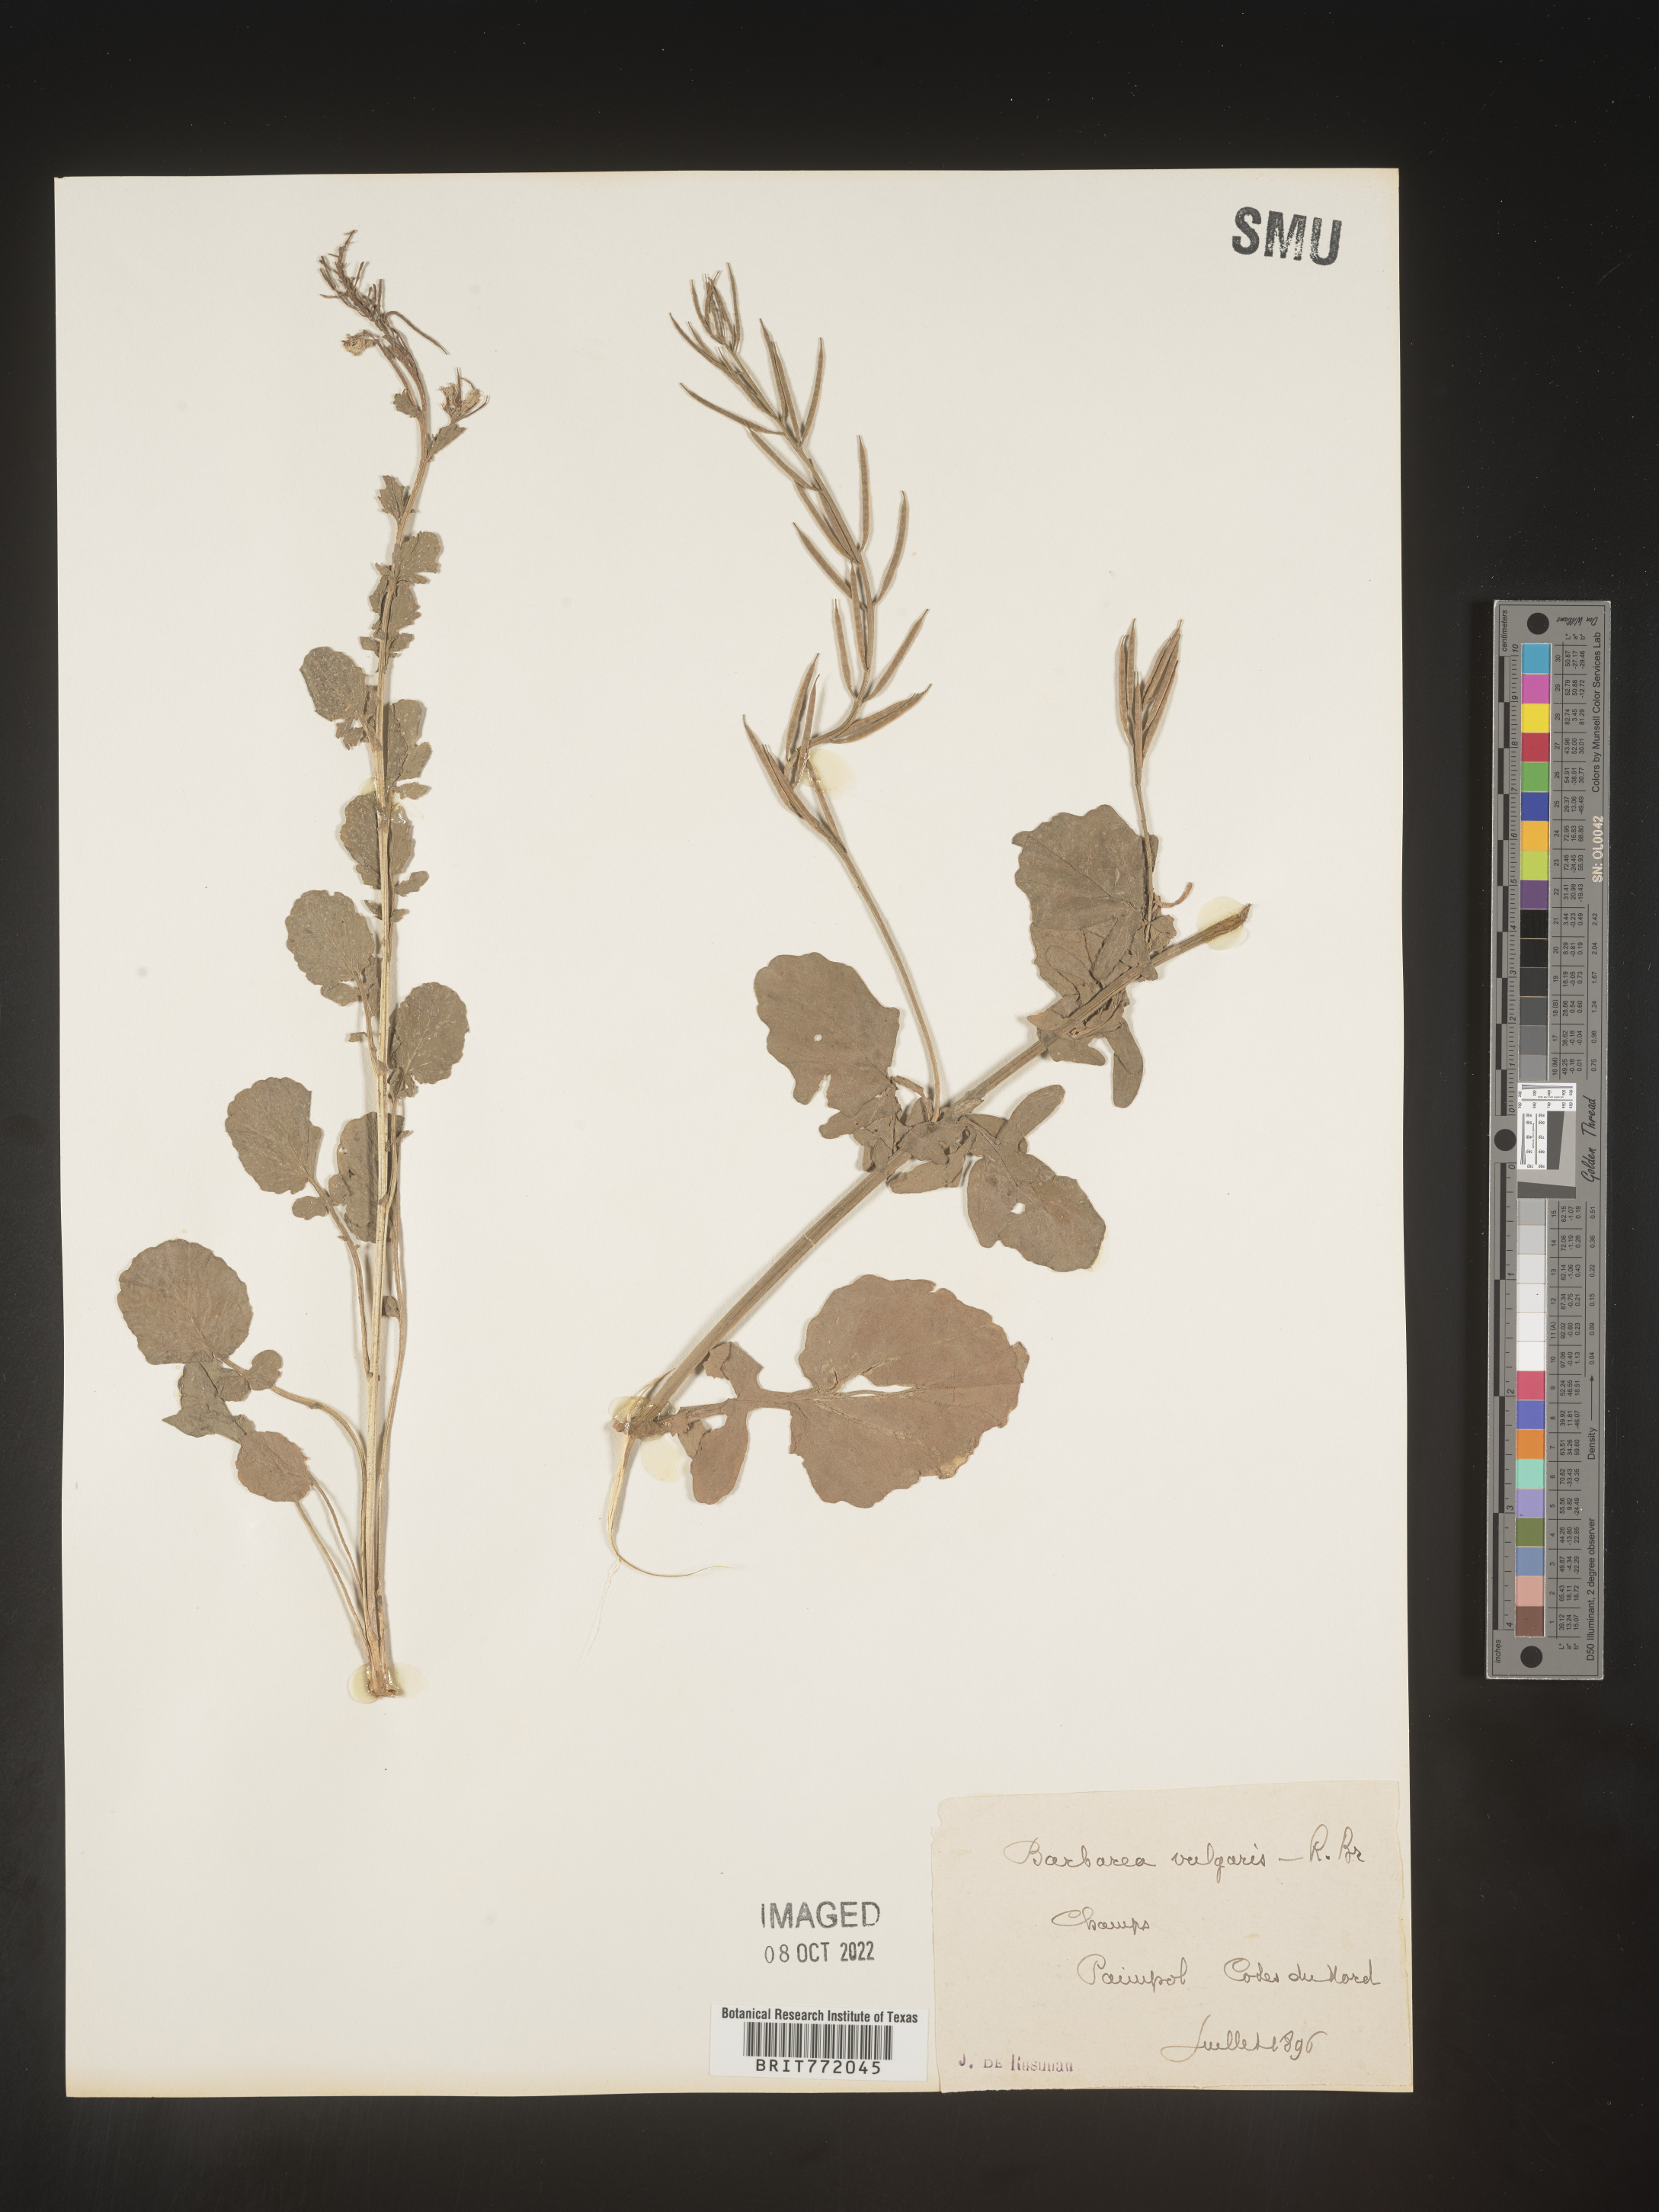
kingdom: Plantae
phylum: Tracheophyta
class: Magnoliopsida
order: Brassicales
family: Brassicaceae
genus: Barbarea
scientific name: Barbarea
